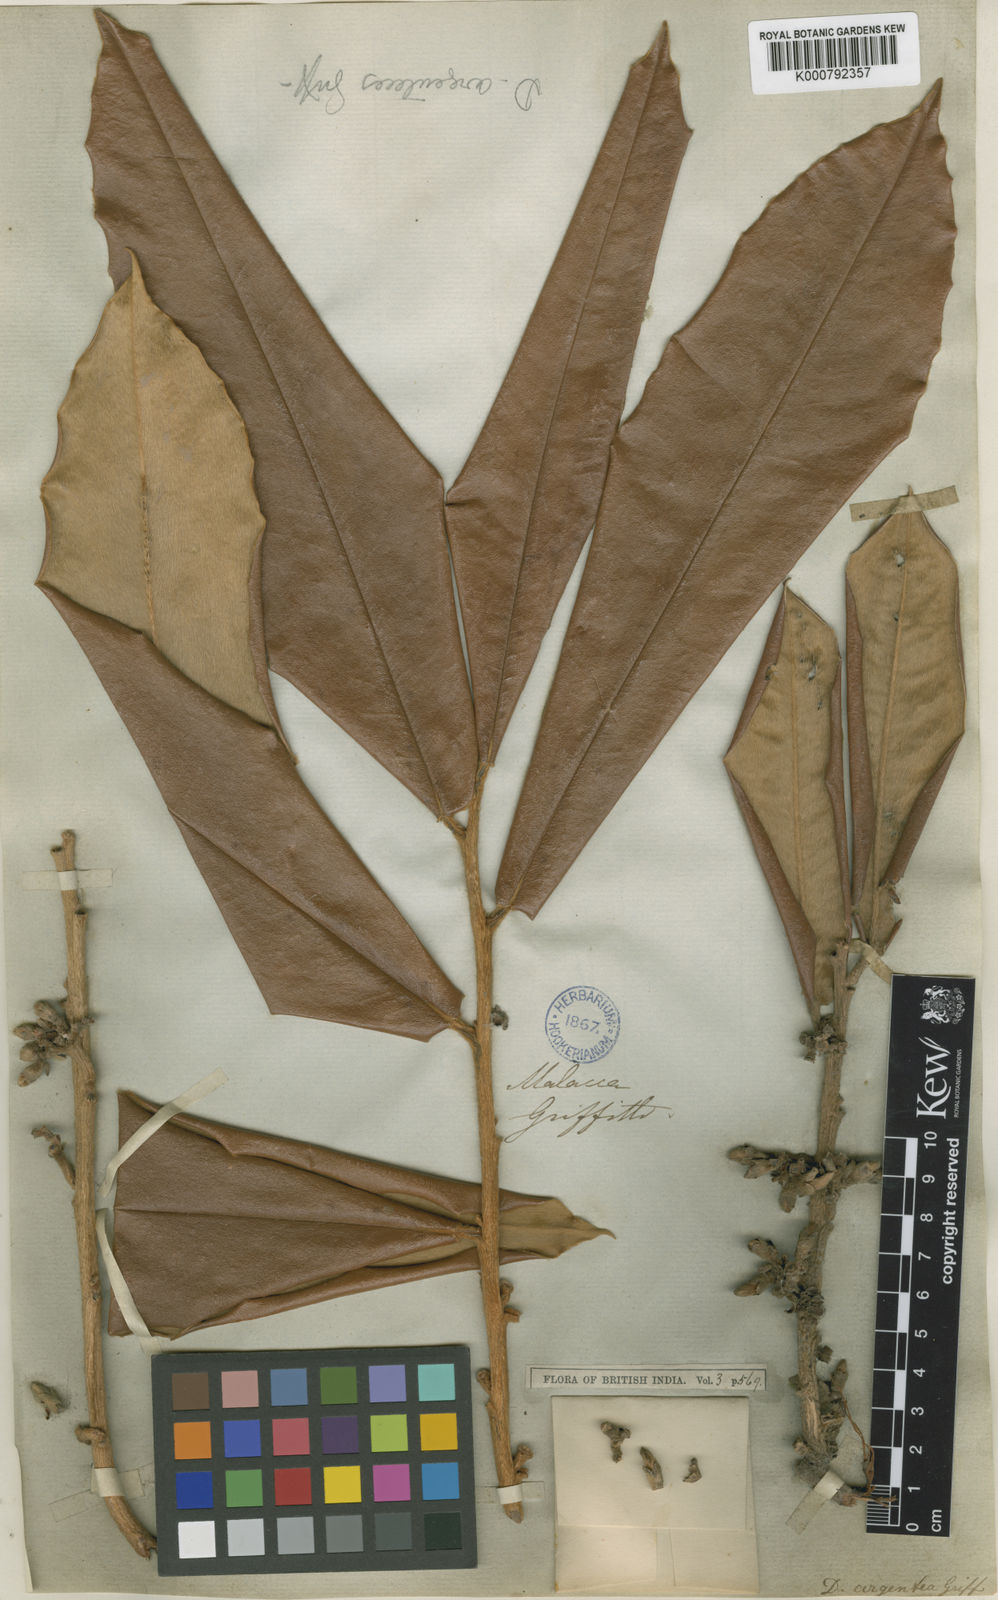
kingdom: Plantae
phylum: Tracheophyta
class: Magnoliopsida
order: Ericales
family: Ebenaceae
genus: Diospyros
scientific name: Diospyros argentea
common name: Silver-leaved ebony
